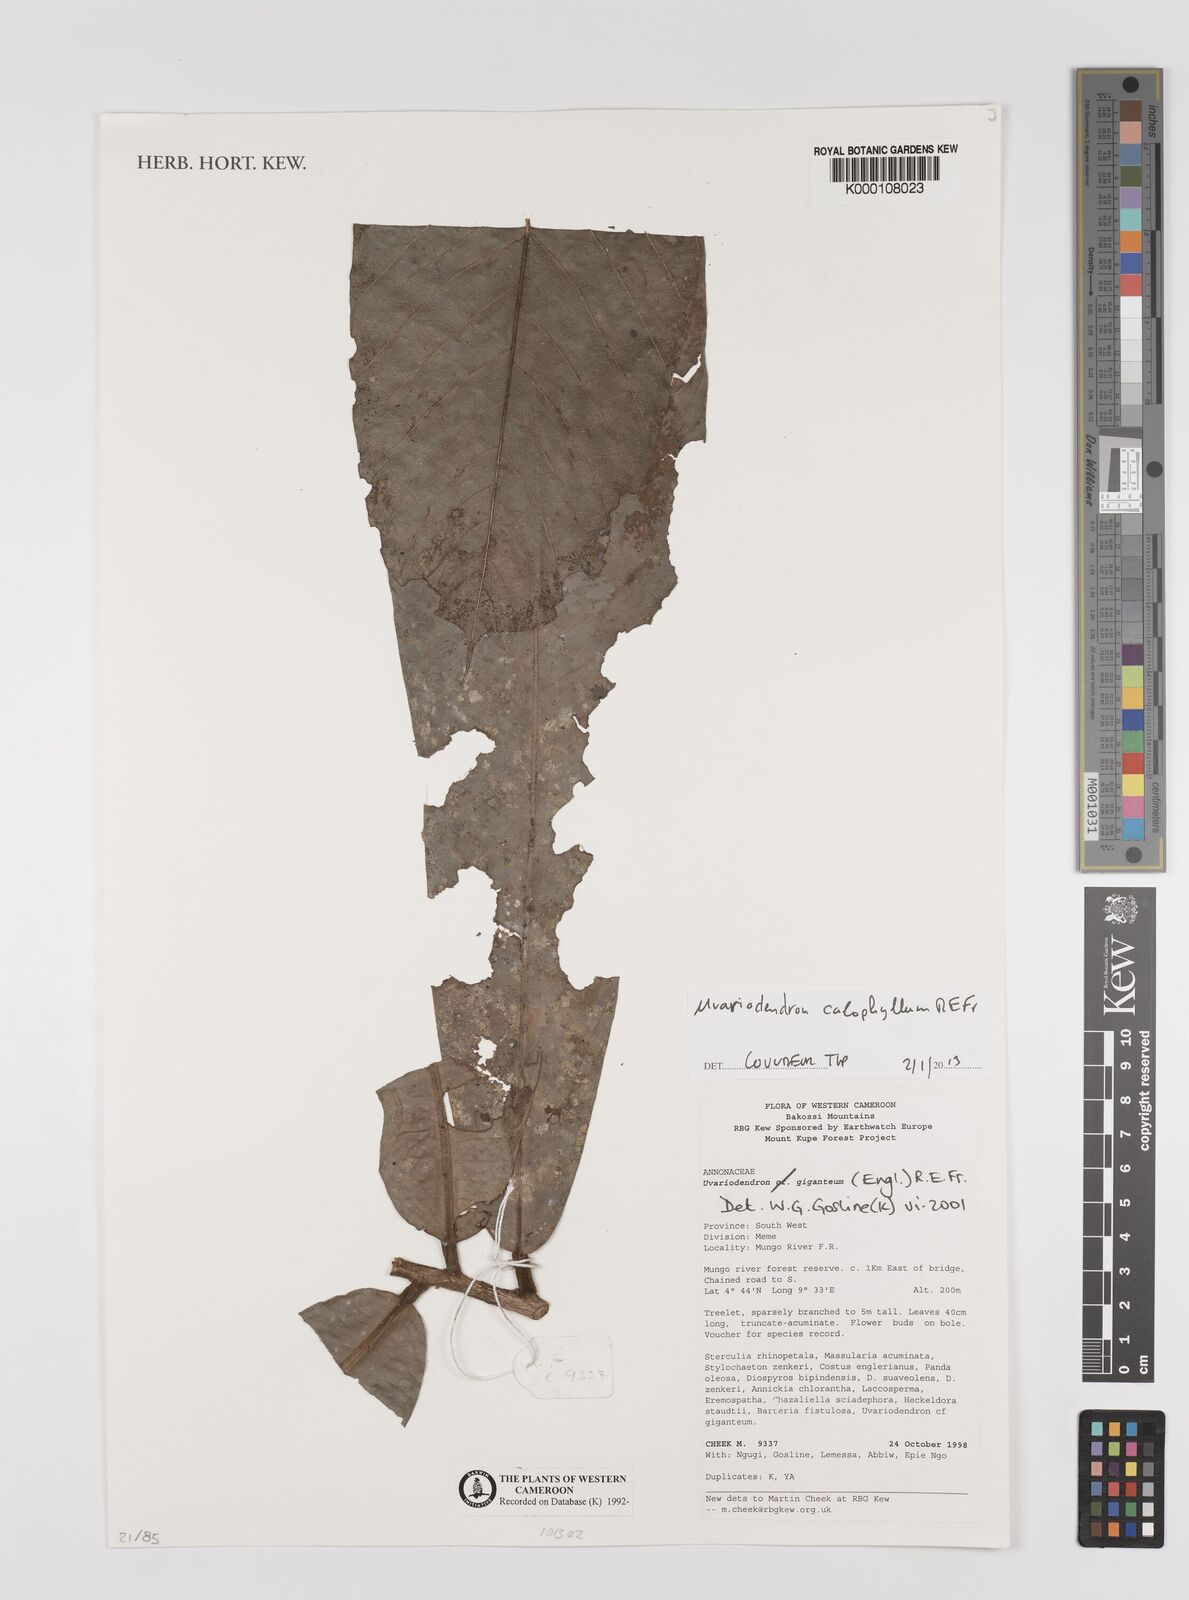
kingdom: Plantae
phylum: Tracheophyta
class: Magnoliopsida
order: Magnoliales
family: Annonaceae
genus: Uvariodendron
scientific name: Uvariodendron giganteum
